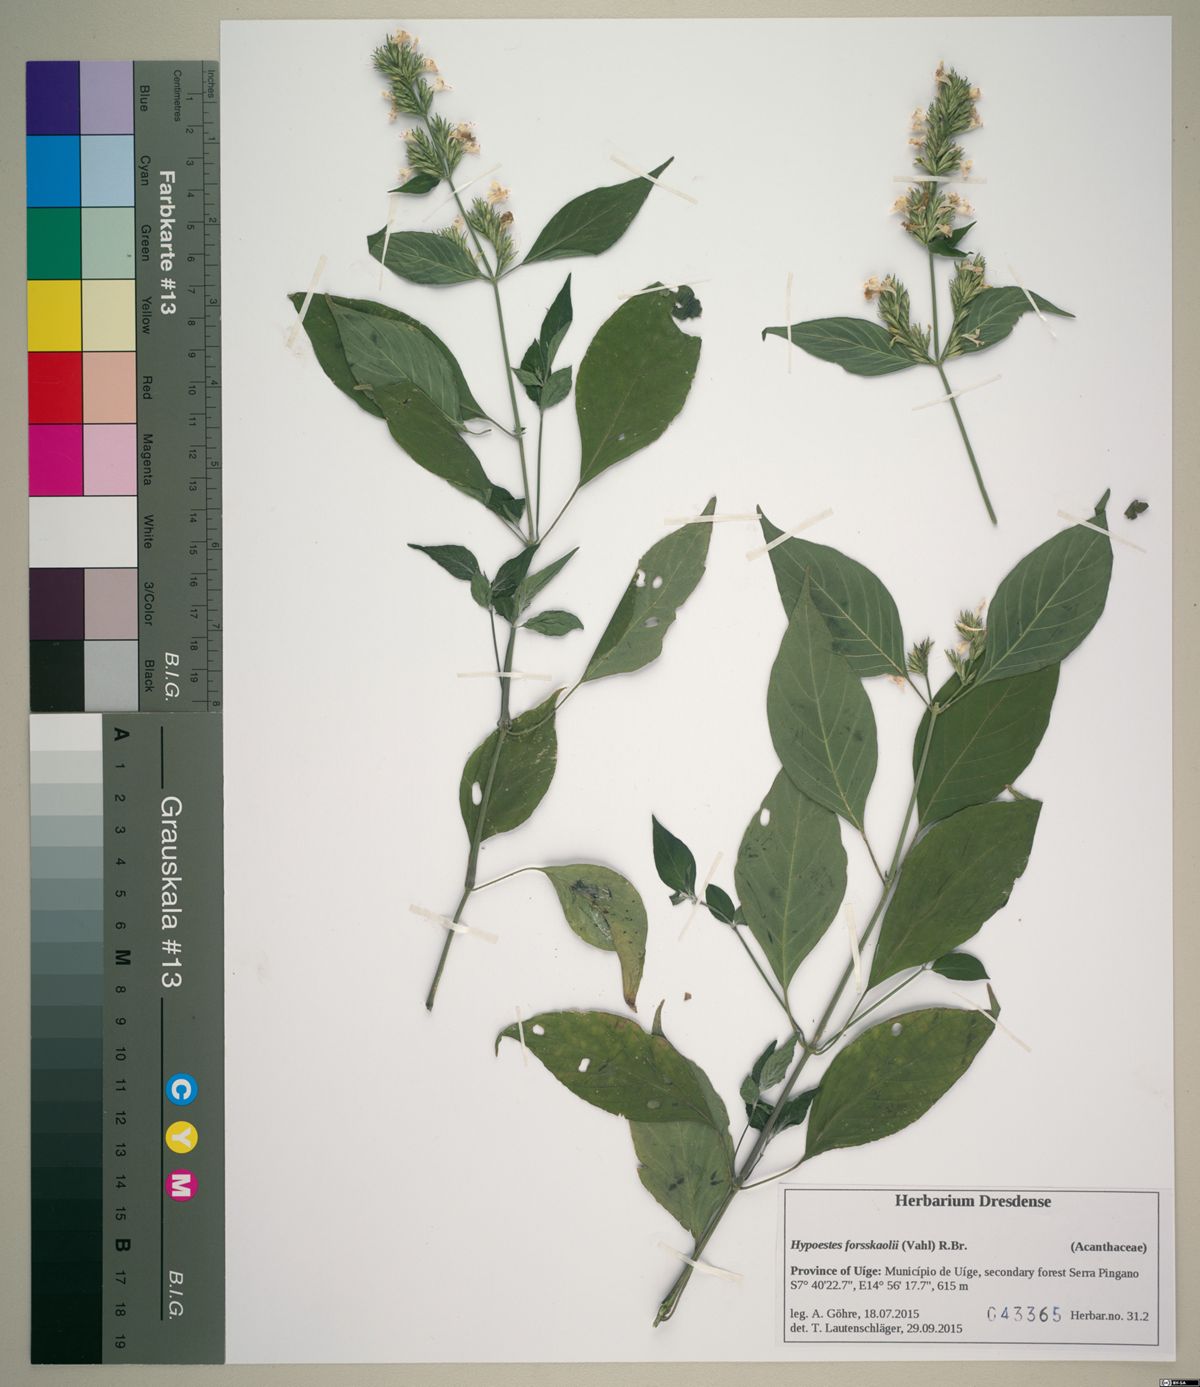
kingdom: Plantae
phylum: Tracheophyta
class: Magnoliopsida
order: Lamiales
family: Acanthaceae
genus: Hypoestes
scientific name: Hypoestes forskaolii
